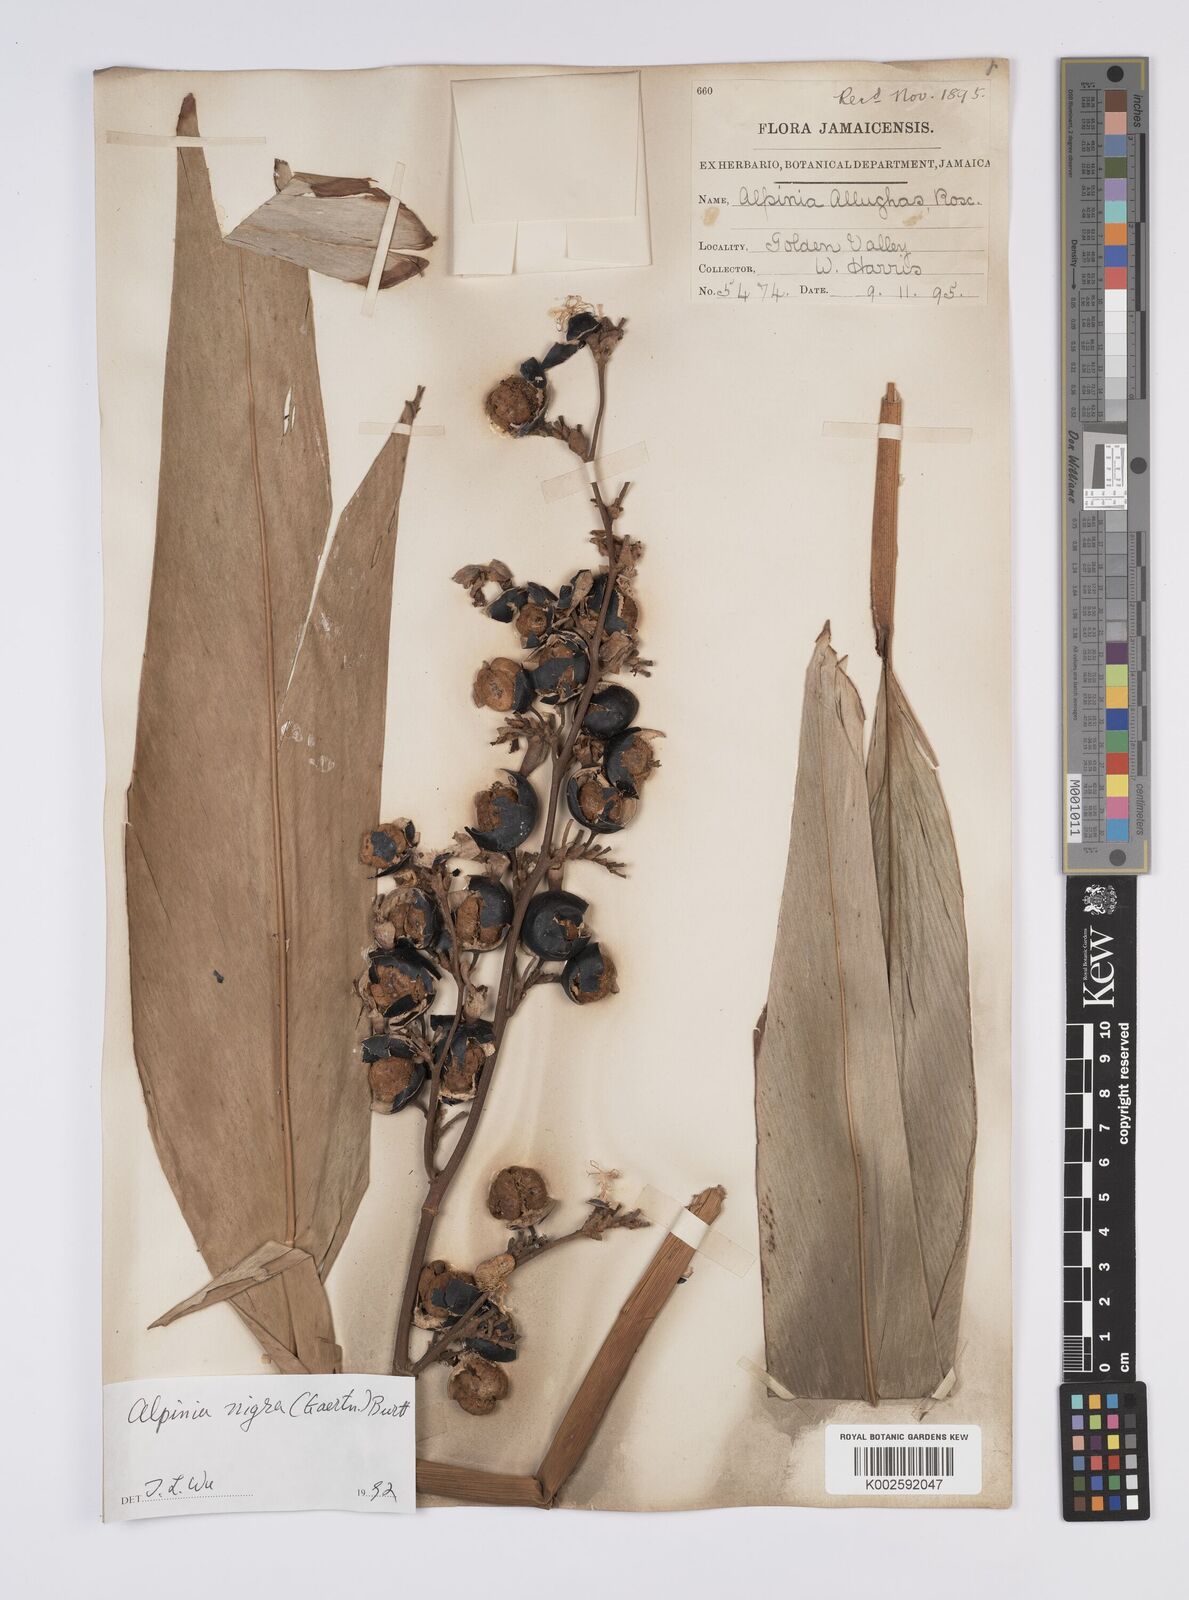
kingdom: Plantae
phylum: Tracheophyta
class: Liliopsida
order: Zingiberales
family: Zingiberaceae
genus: Alpinia
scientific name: Alpinia nigra
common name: Black fruited galanga
